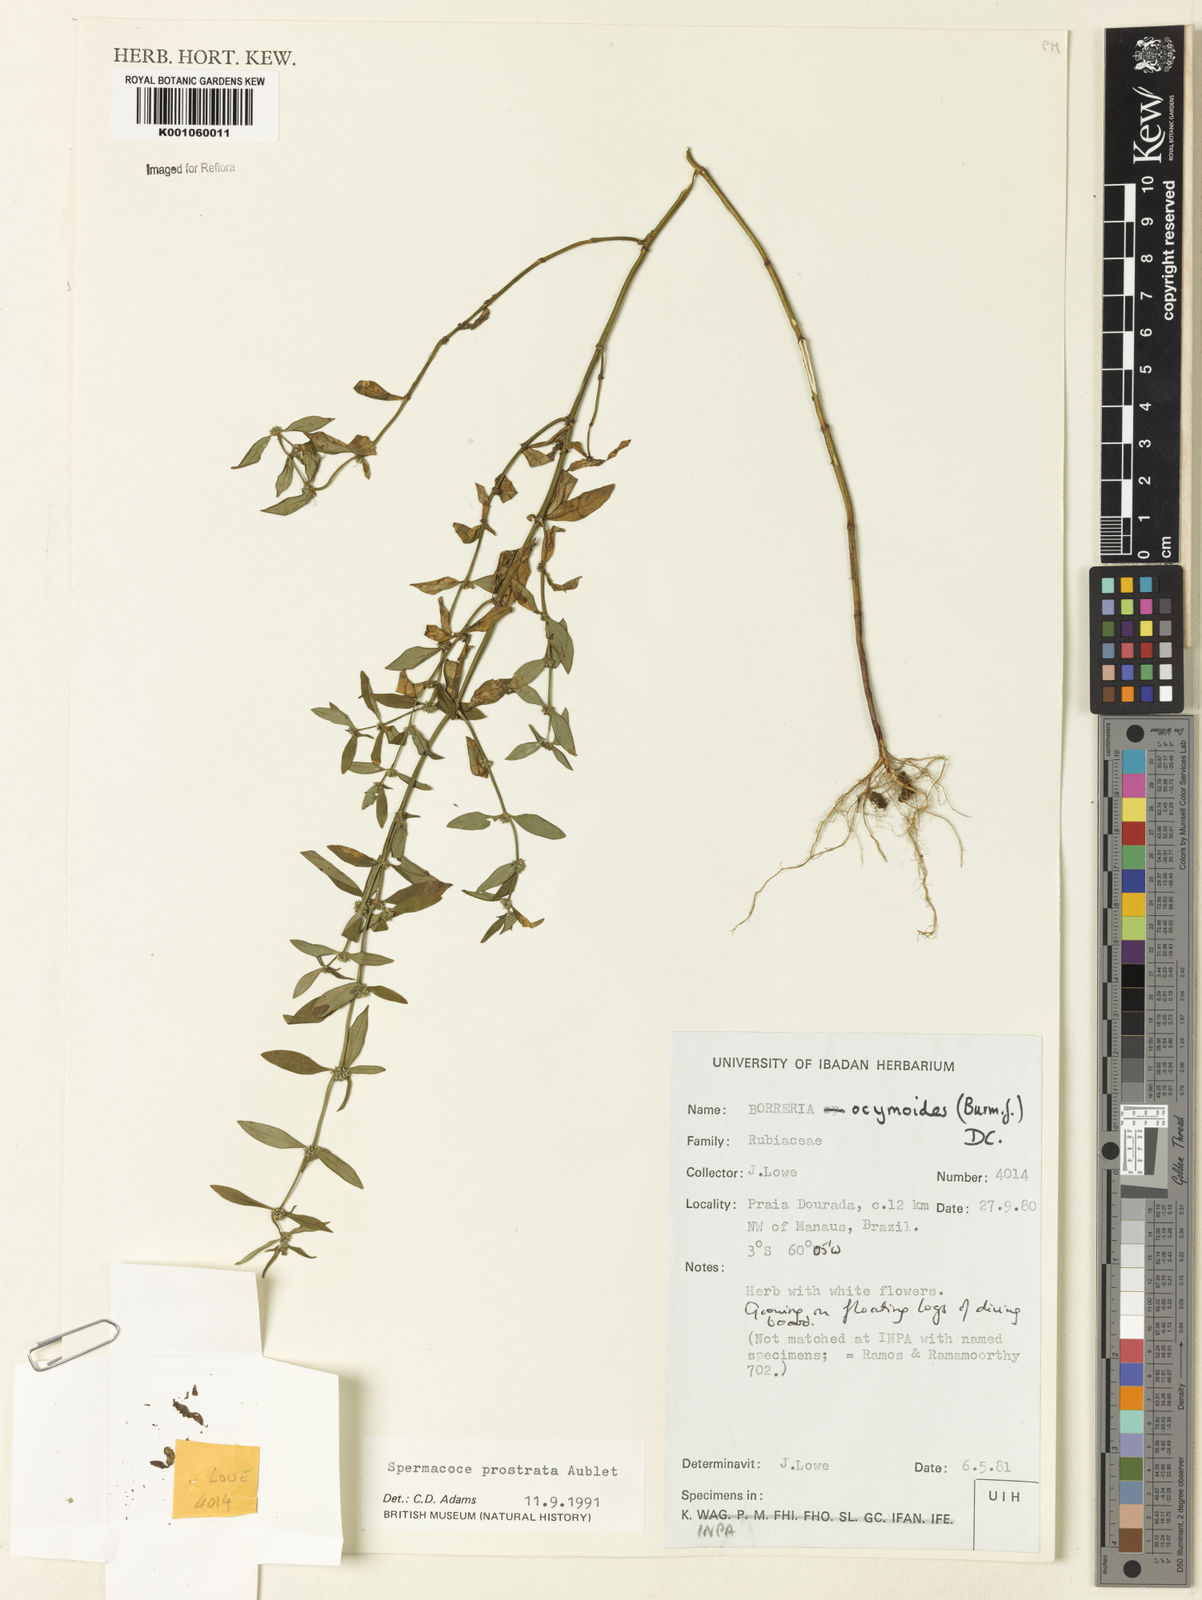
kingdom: Plantae
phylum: Tracheophyta
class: Magnoliopsida
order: Gentianales
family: Rubiaceae
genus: Spermacoce
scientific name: Spermacoce
